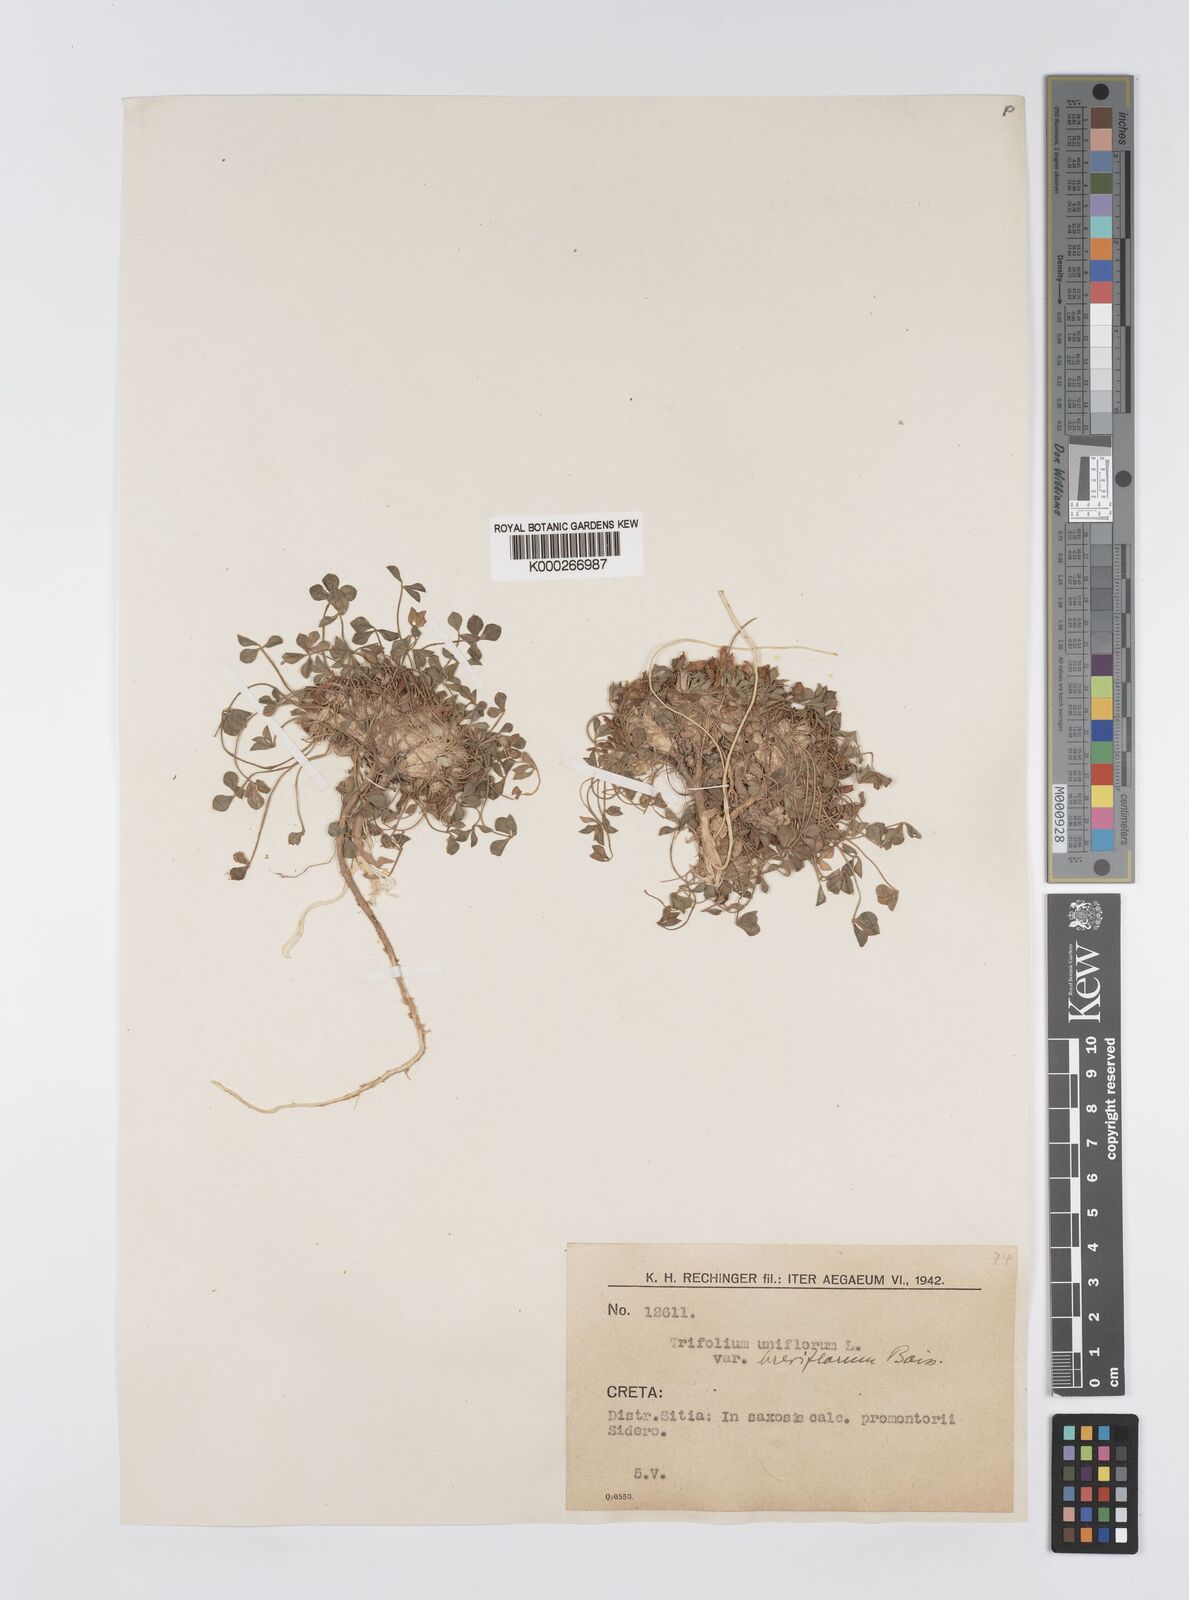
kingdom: Plantae
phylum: Tracheophyta
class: Magnoliopsida
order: Fabales
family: Fabaceae
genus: Trifolium
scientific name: Trifolium uniflorum
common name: One-flower clover
